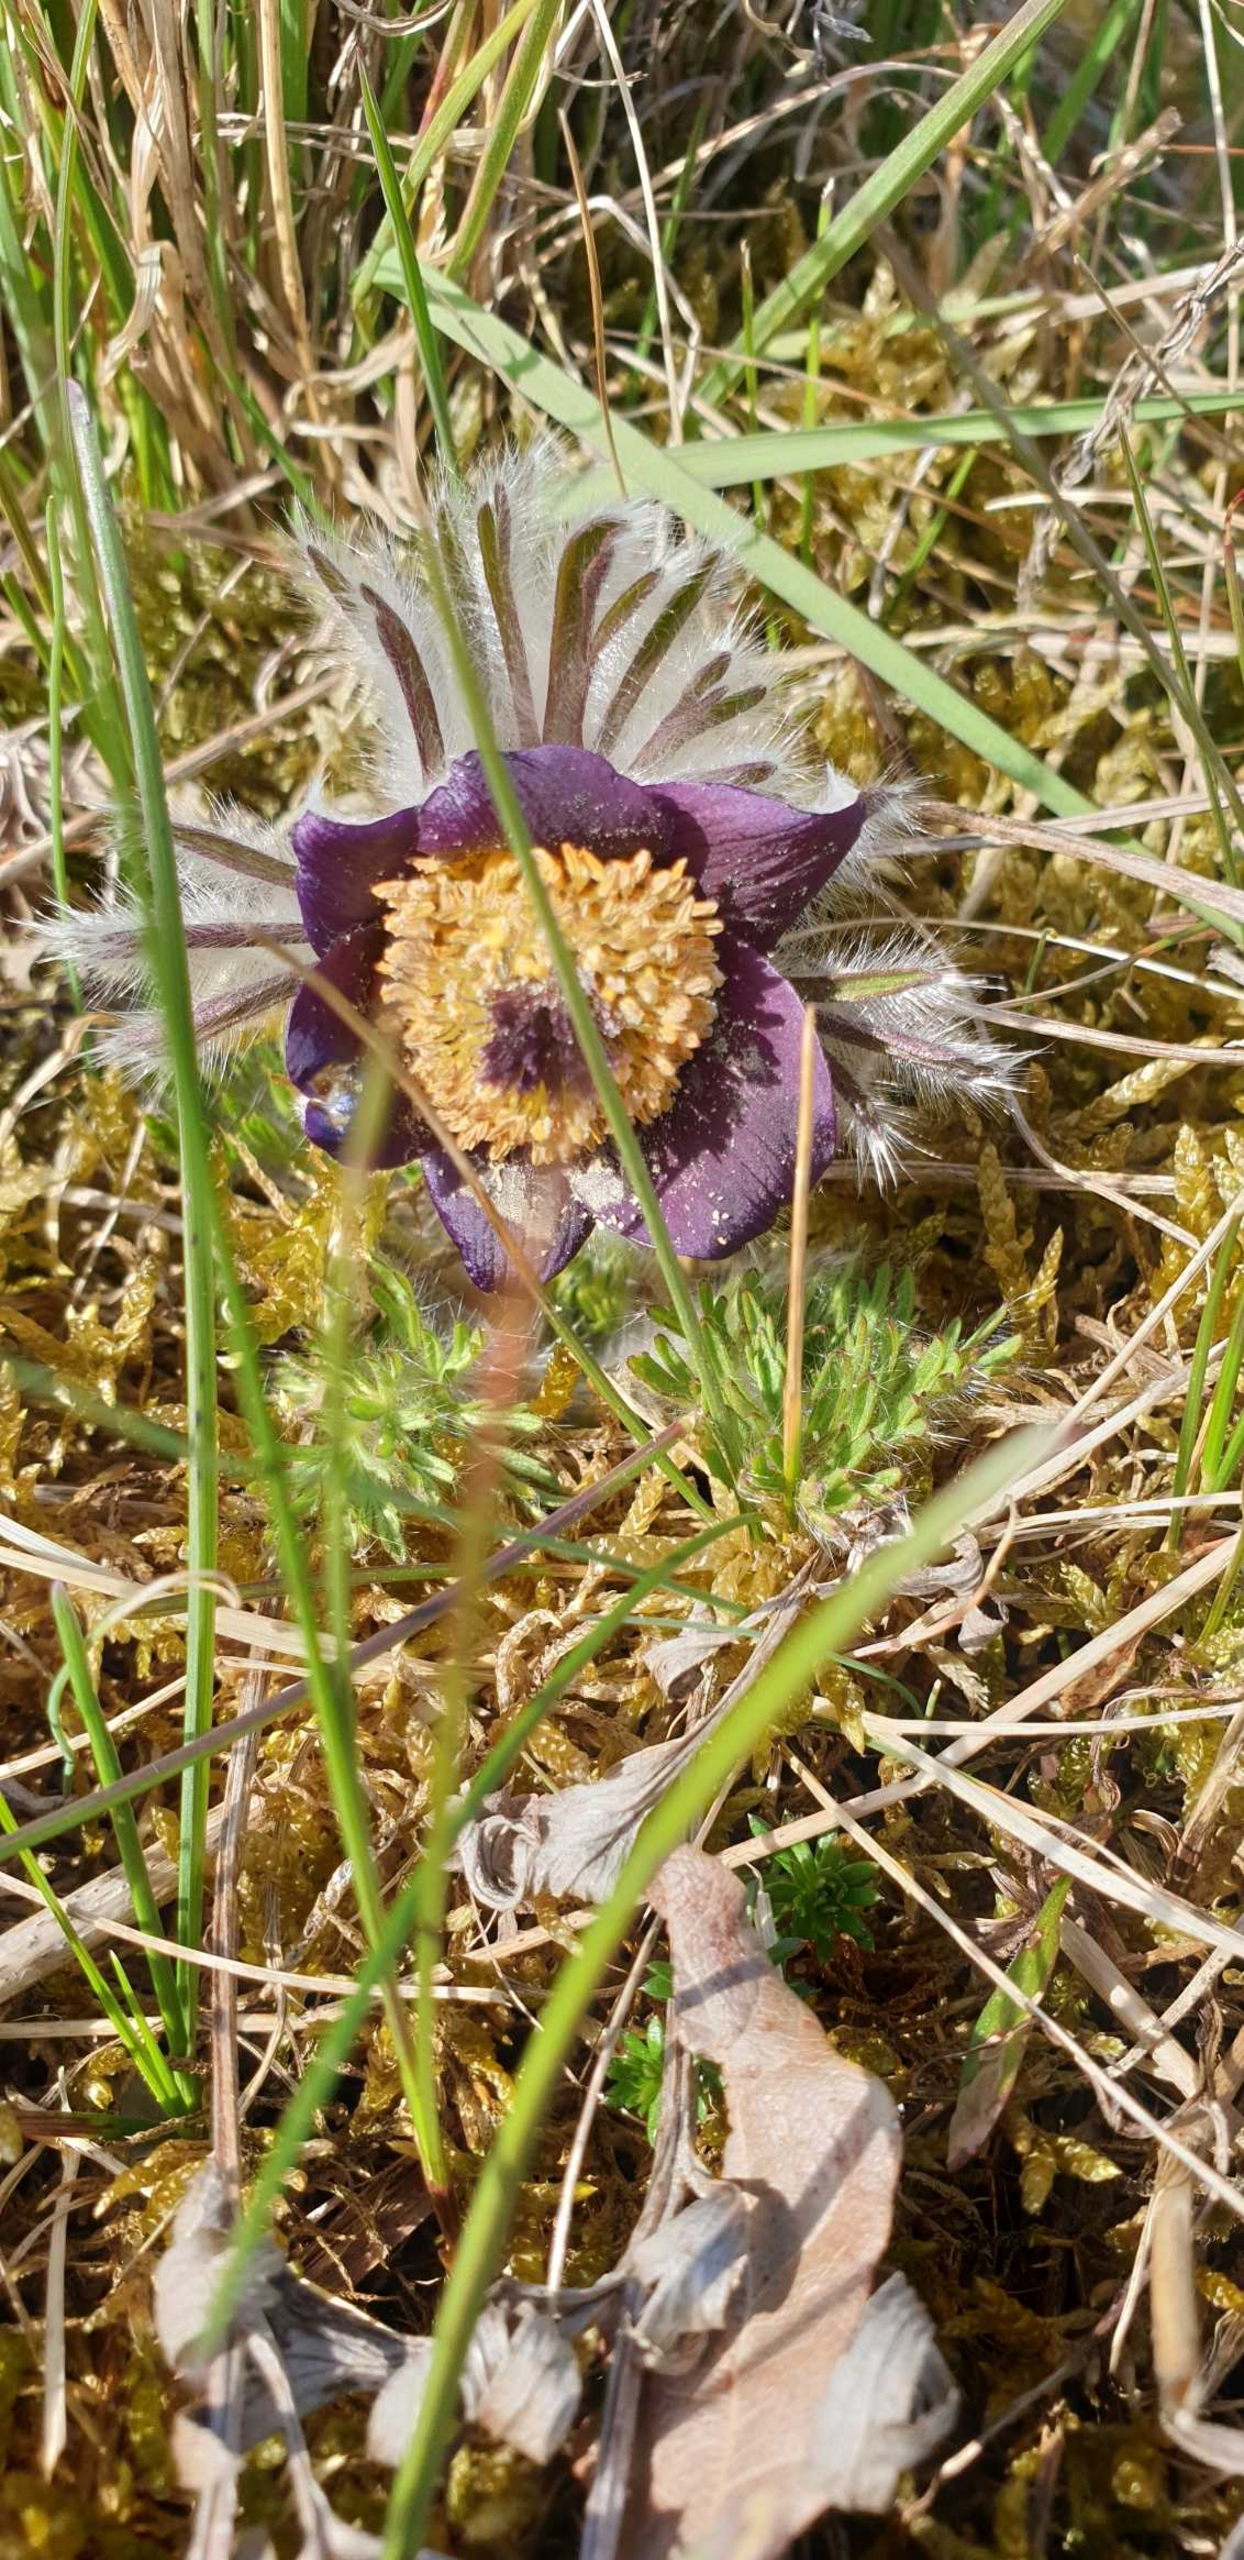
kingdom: Plantae
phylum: Tracheophyta
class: Magnoliopsida
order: Ranunculales
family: Ranunculaceae
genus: Pulsatilla
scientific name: Pulsatilla pratensis
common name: Nikkende kobjælde
